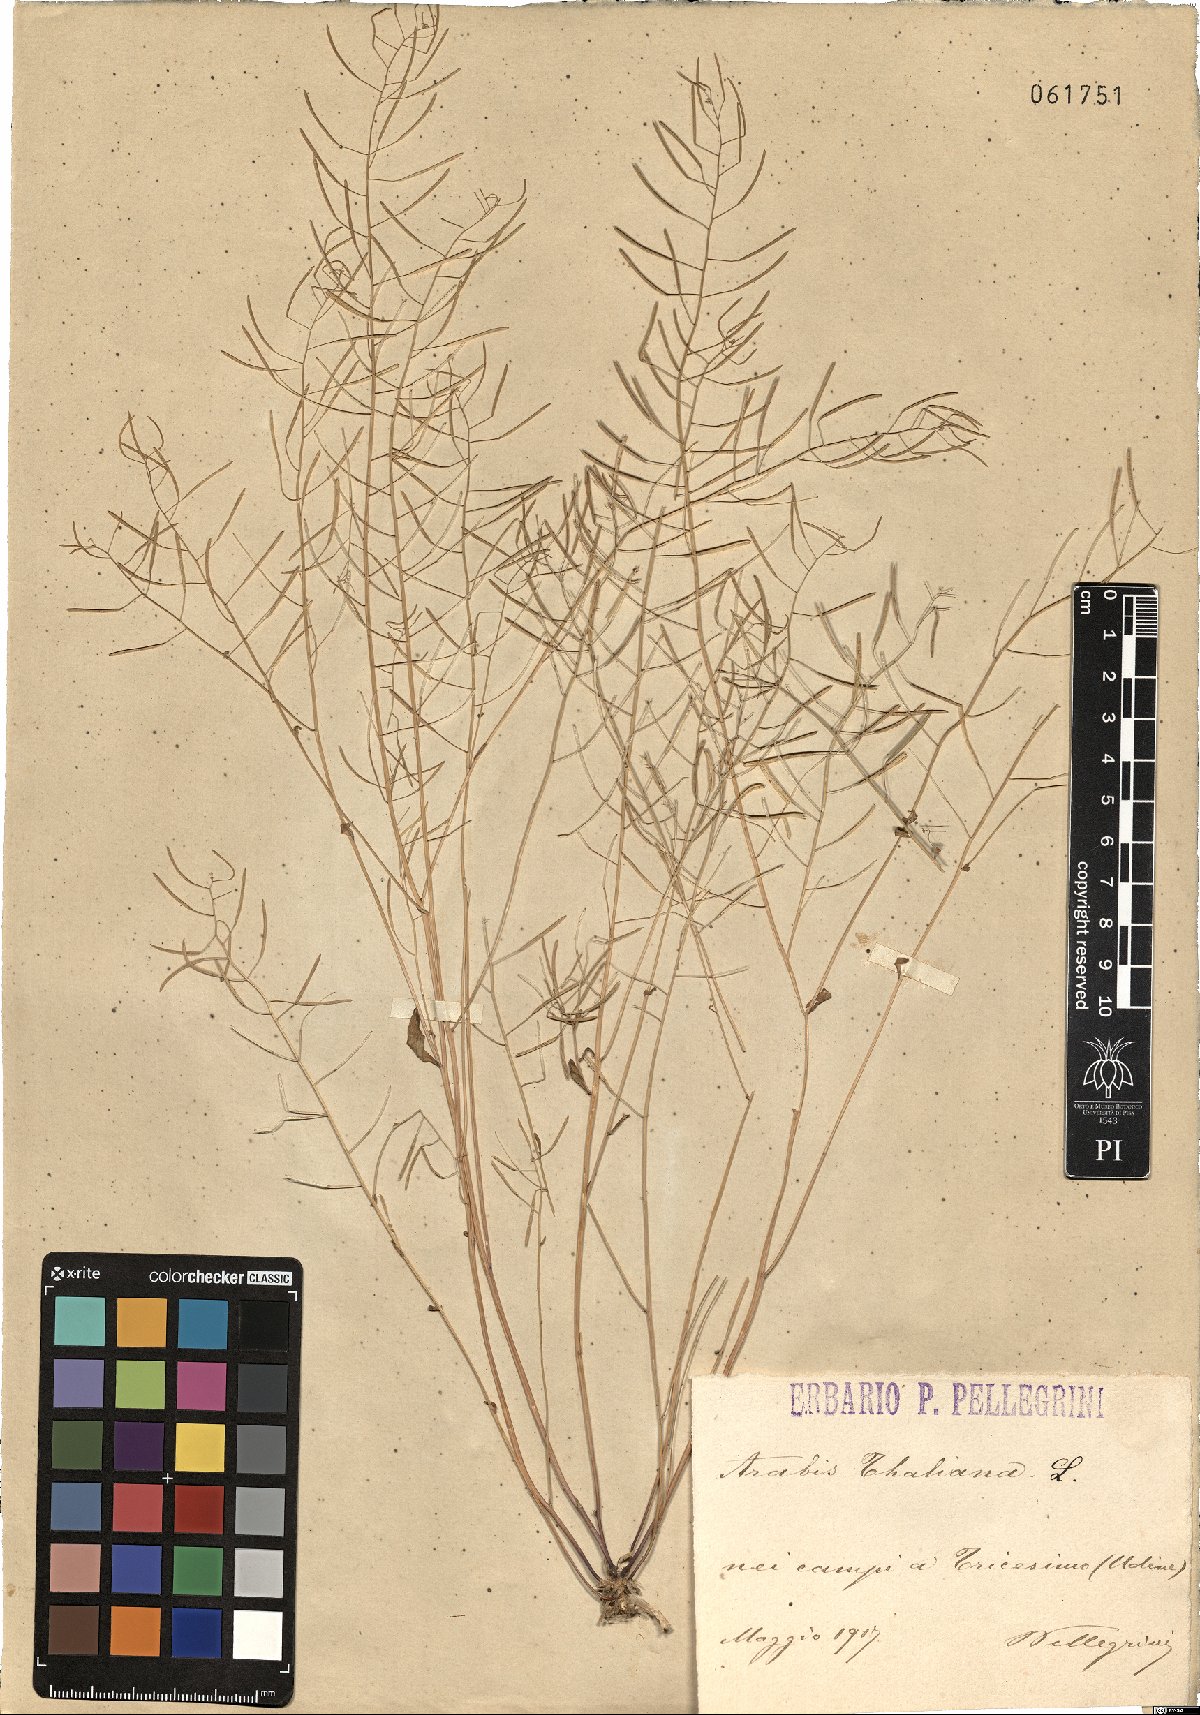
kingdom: Plantae
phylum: Tracheophyta
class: Magnoliopsida
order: Brassicales
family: Brassicaceae
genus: Arabidopsis
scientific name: Arabidopsis thaliana
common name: Thale cress
